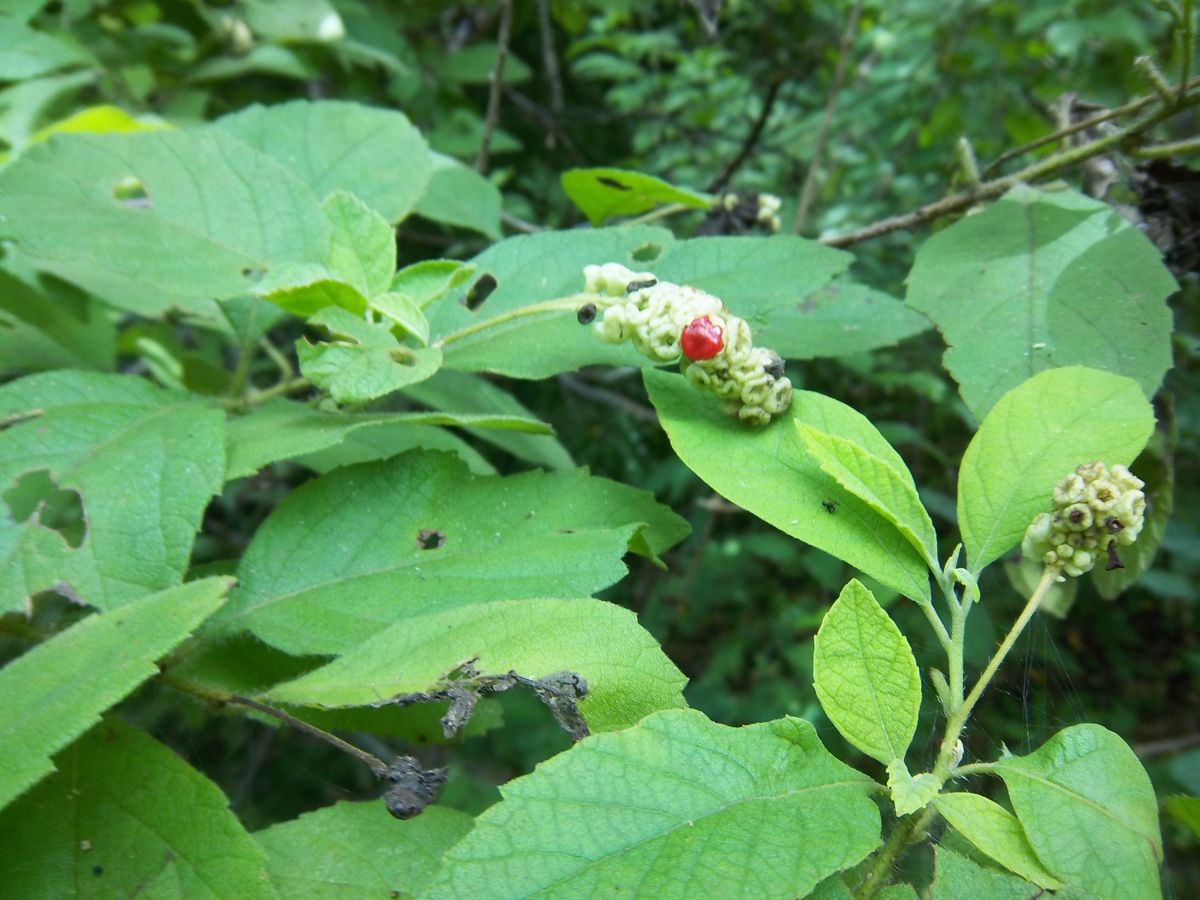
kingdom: Plantae
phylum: Tracheophyta
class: Magnoliopsida
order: Boraginales
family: Cordiaceae
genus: Varronia
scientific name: Varronia guanacastensis
